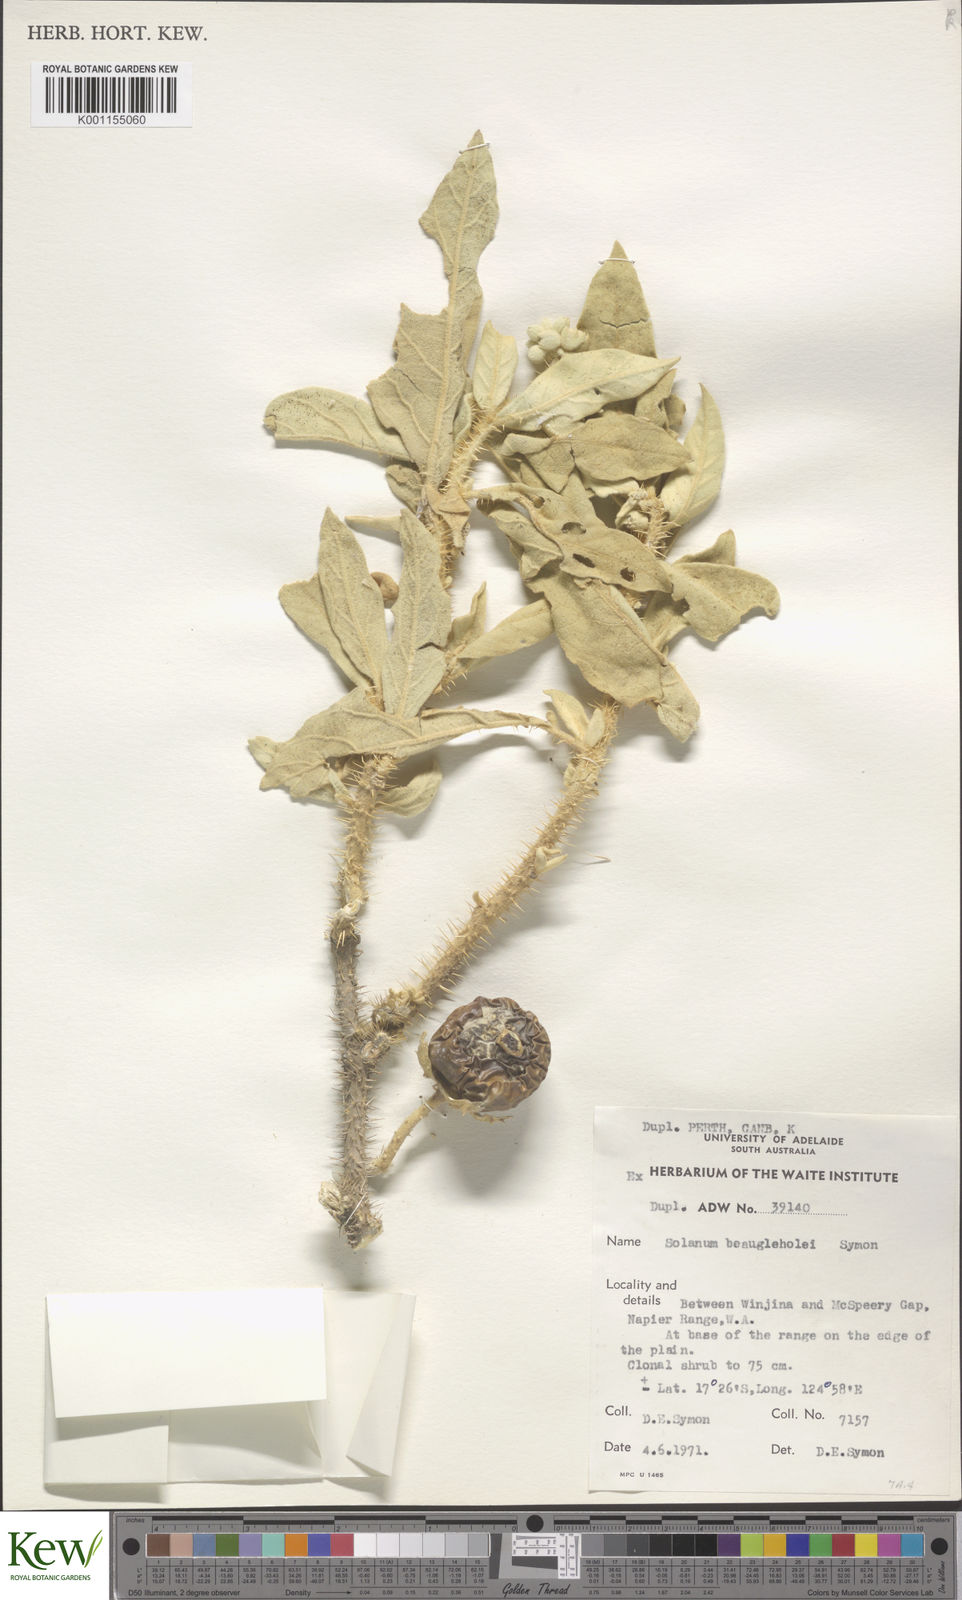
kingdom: Plantae
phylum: Tracheophyta
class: Magnoliopsida
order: Solanales
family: Solanaceae
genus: Solanum
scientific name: Solanum beaugleholei
